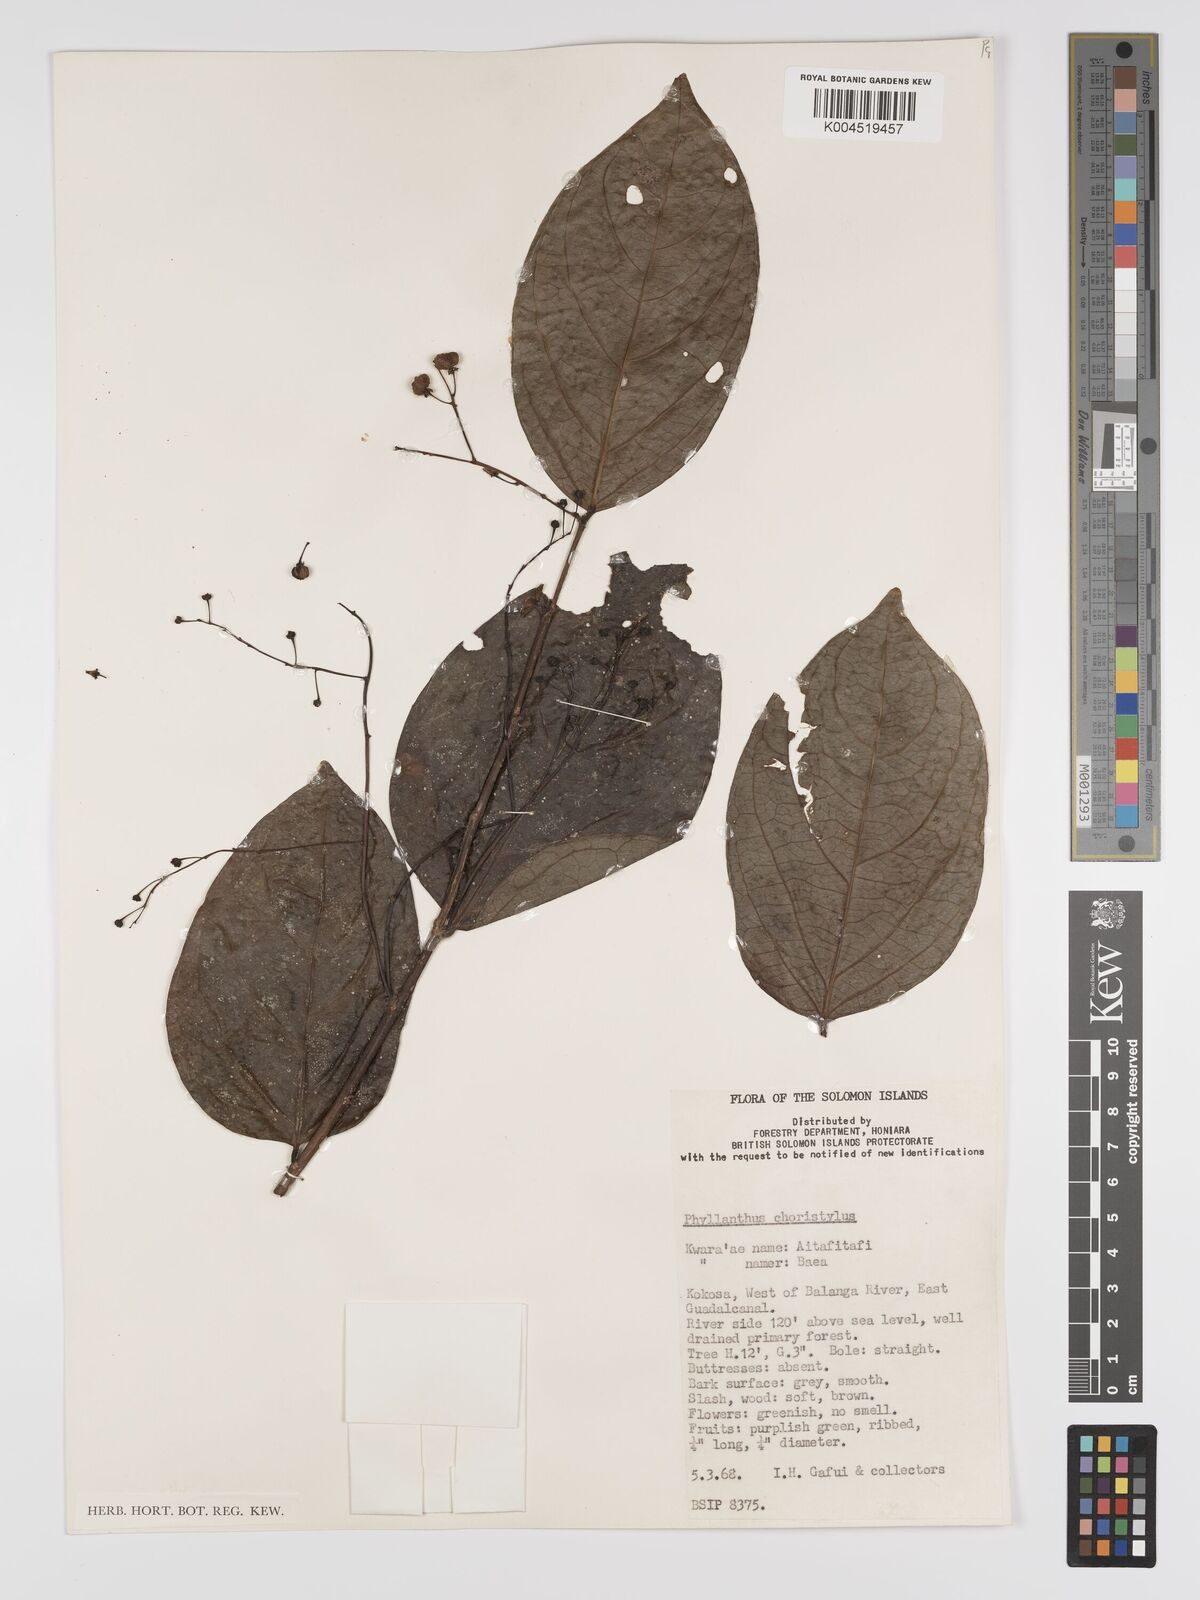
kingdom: Plantae
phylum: Tracheophyta
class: Magnoliopsida
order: Malpighiales
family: Phyllanthaceae
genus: Phyllanthus
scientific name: Phyllanthus clamboides
